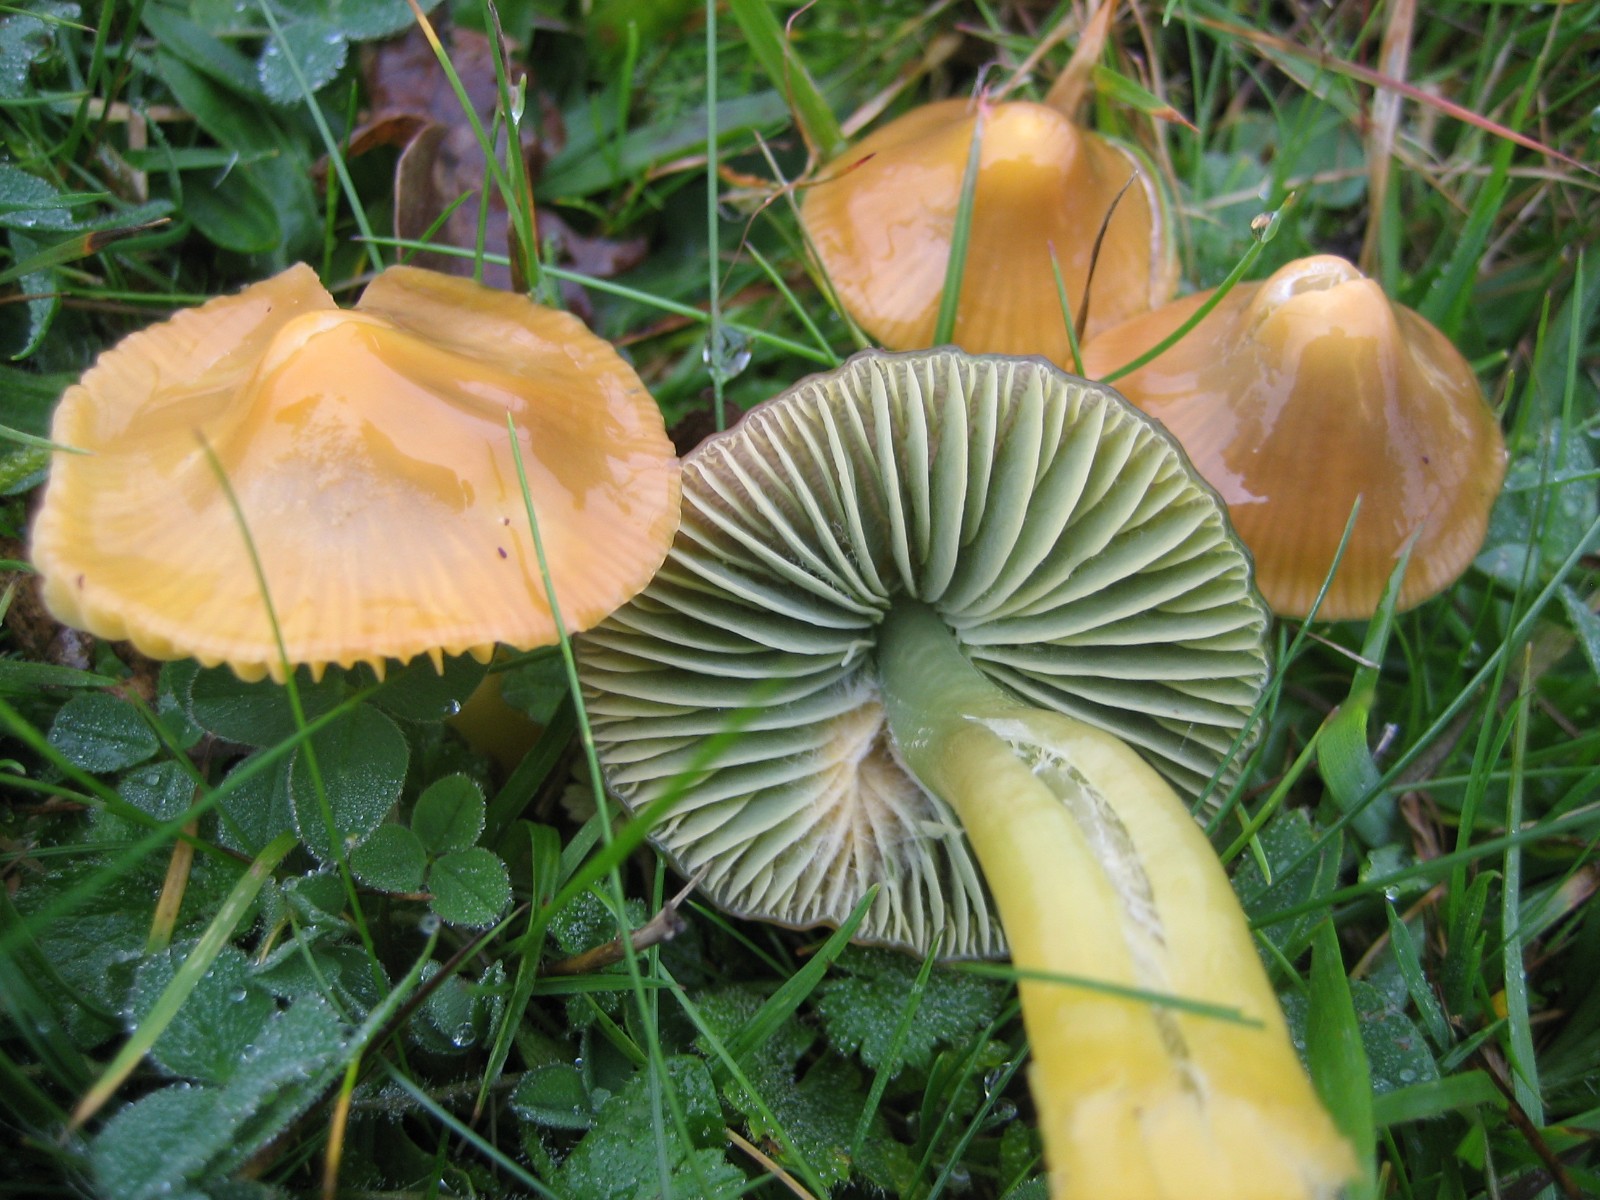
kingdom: Fungi
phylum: Basidiomycota
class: Agaricomycetes
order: Agaricales
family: Hygrophoraceae
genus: Gliophorus
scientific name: Gliophorus psittacinus
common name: papegøje-vokshat
